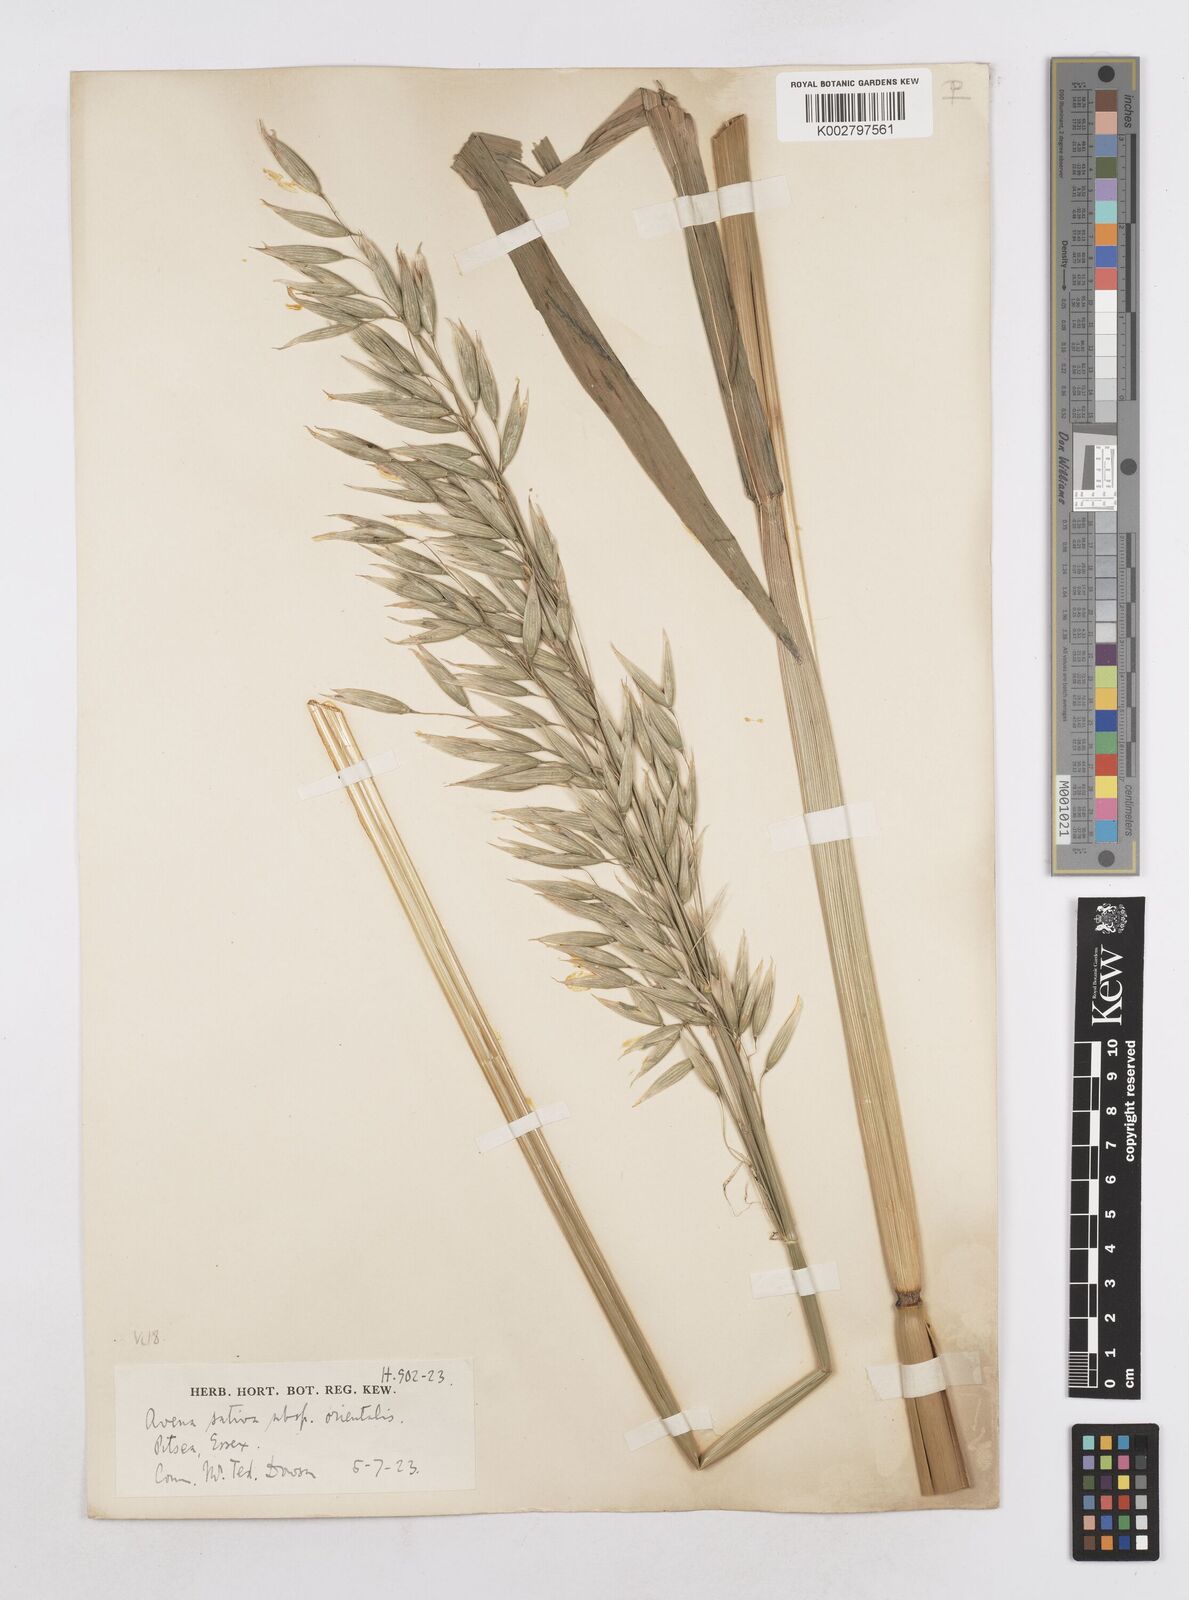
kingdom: Plantae
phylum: Tracheophyta
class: Liliopsida
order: Poales
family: Poaceae
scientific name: Poaceae
